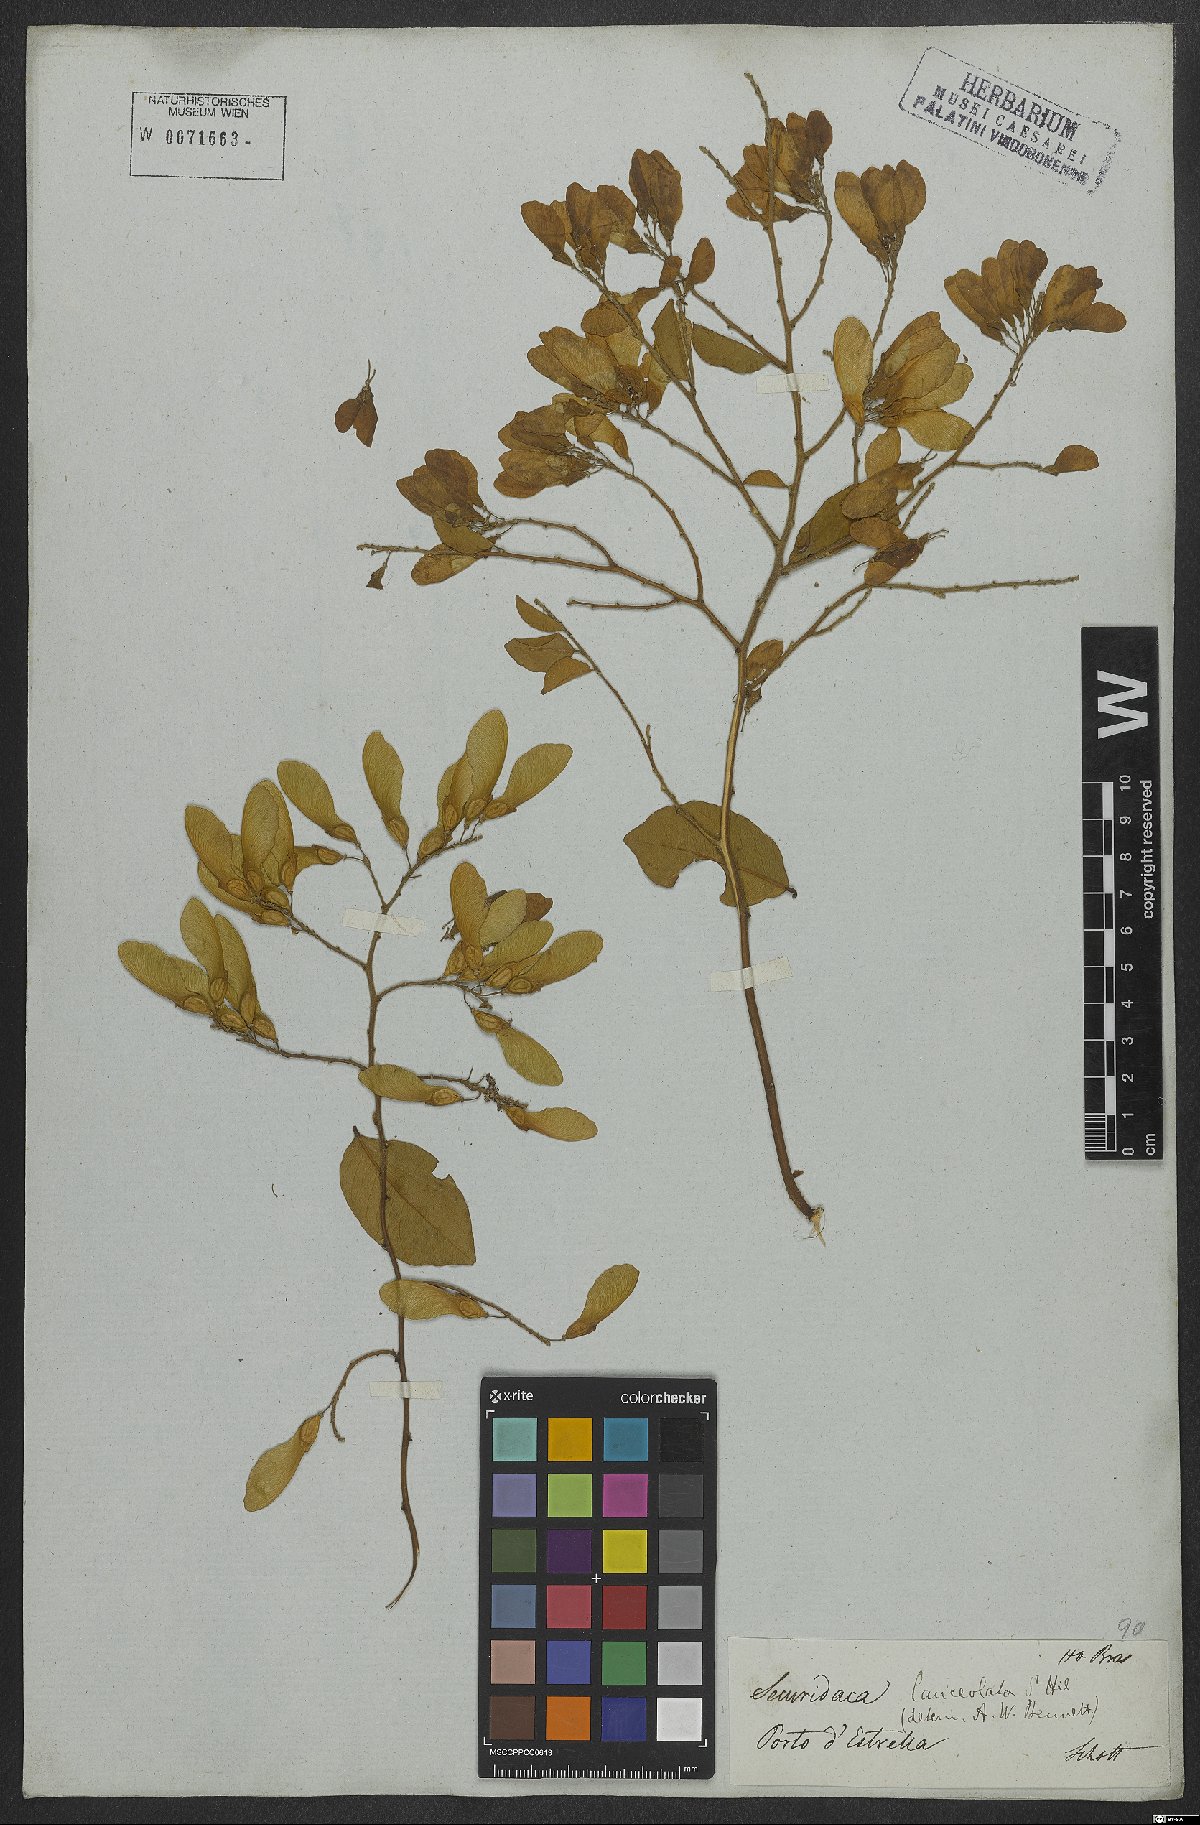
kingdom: Plantae
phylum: Tracheophyta
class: Magnoliopsida
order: Fabales
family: Polygalaceae
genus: Securidaca
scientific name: Securidaca lanceolata
